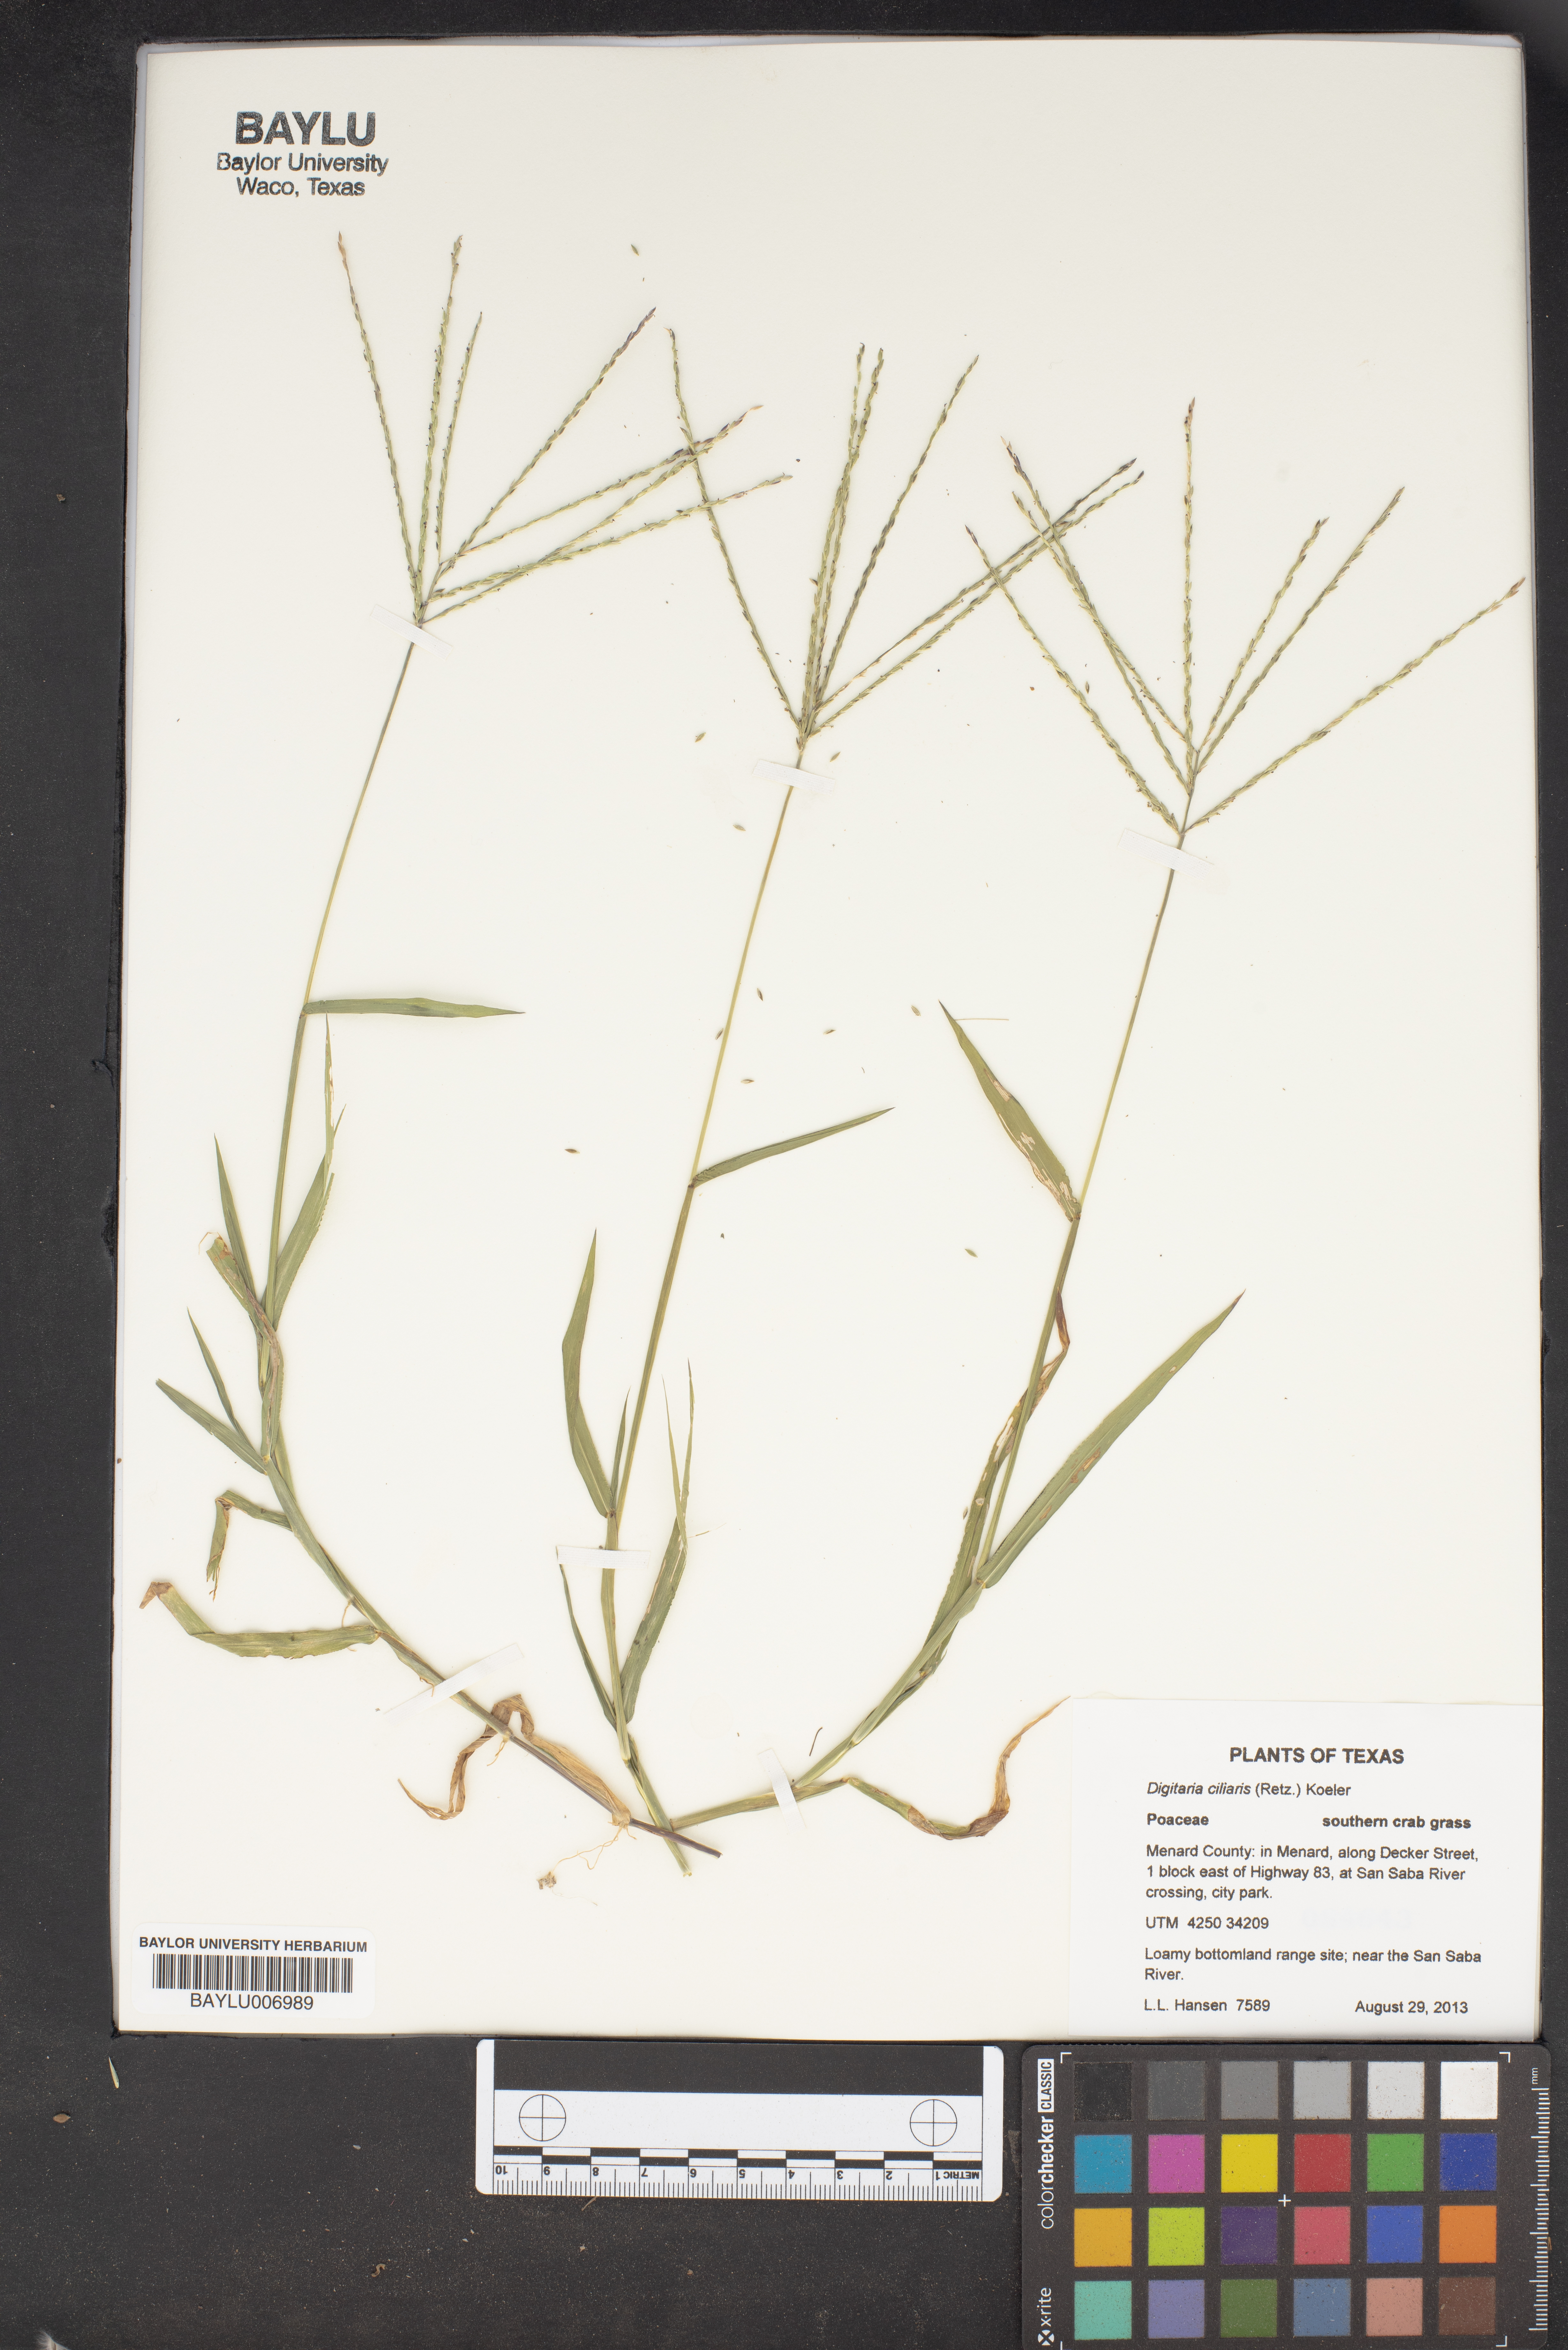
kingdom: Plantae
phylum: Tracheophyta
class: Liliopsida
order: Poales
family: Poaceae
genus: Digitaria
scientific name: Digitaria ciliaris
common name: Tropical finger-grass
